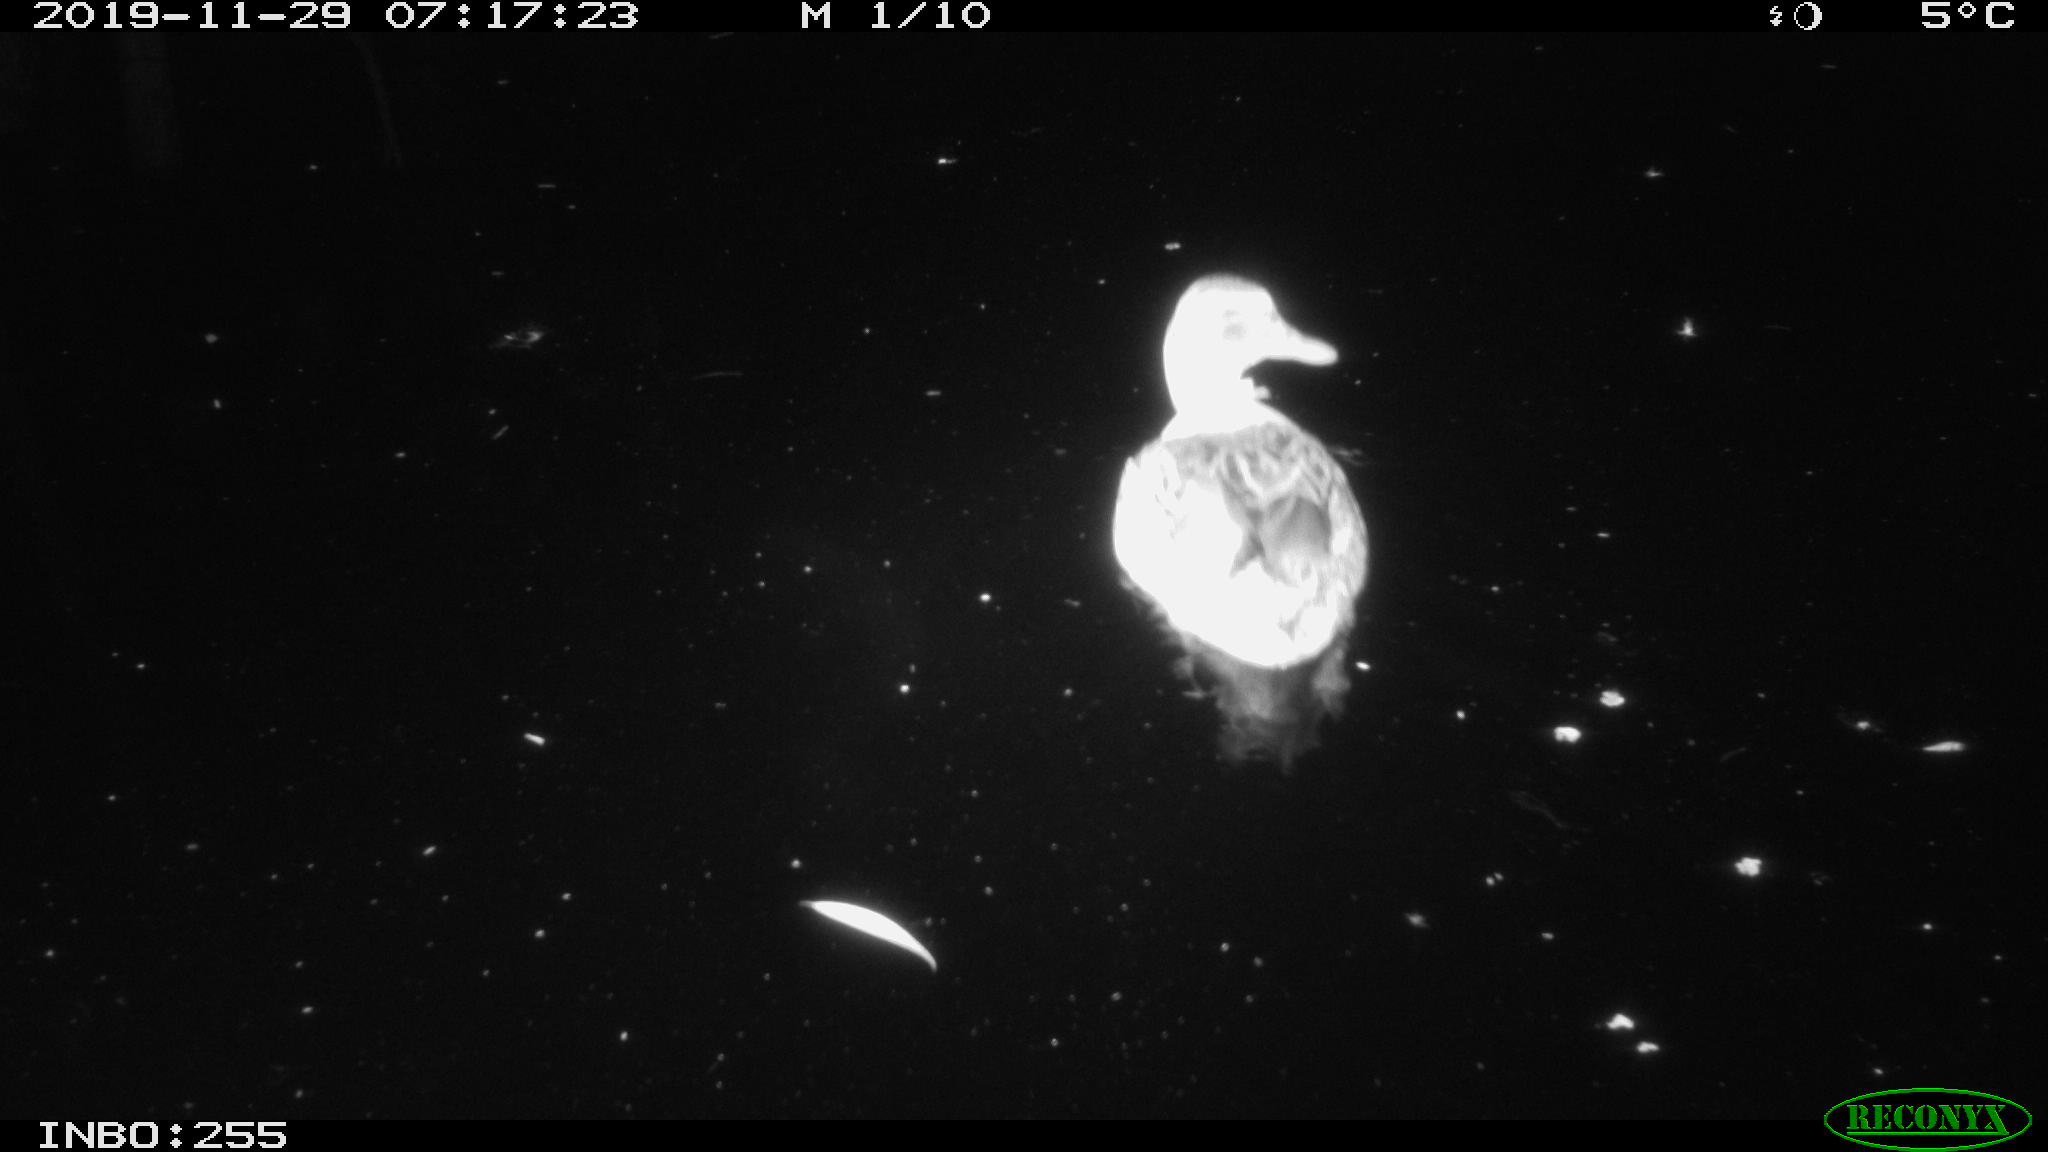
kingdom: Animalia
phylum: Chordata
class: Aves
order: Anseriformes
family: Anatidae
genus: Anas
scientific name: Anas platyrhynchos
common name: Mallard
